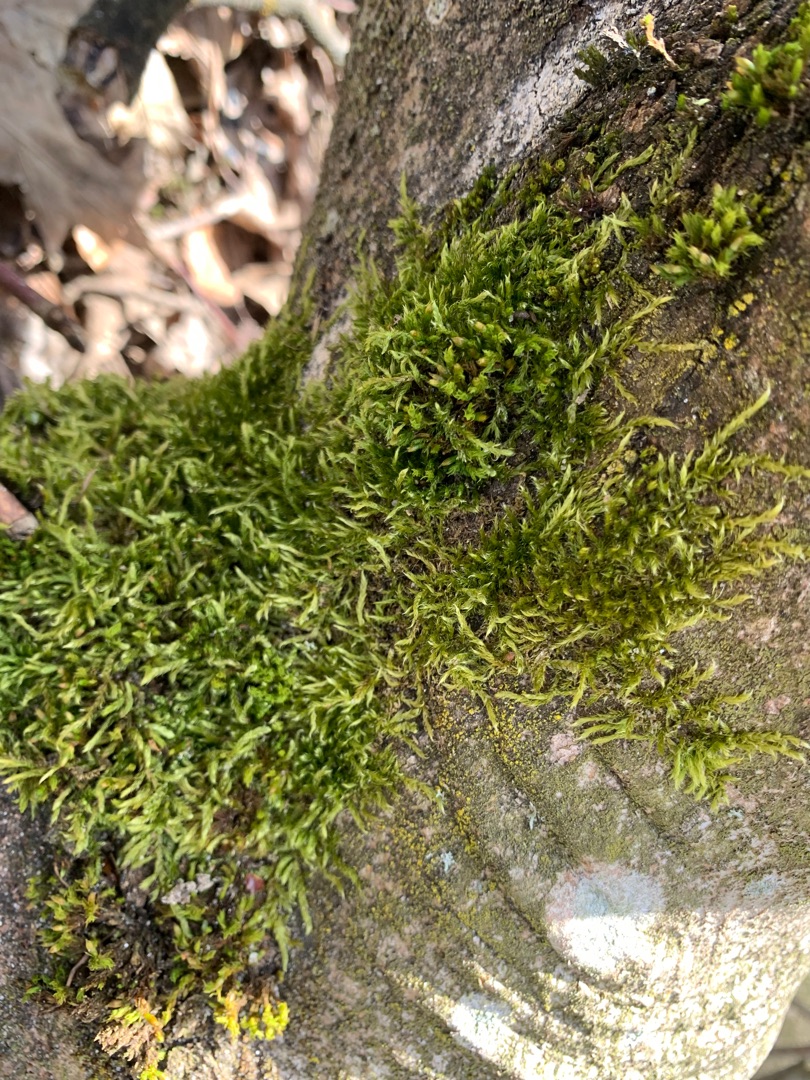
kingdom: Plantae
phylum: Bryophyta
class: Bryopsida
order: Hypnales
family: Hypnaceae
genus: Hypnum
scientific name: Hypnum
